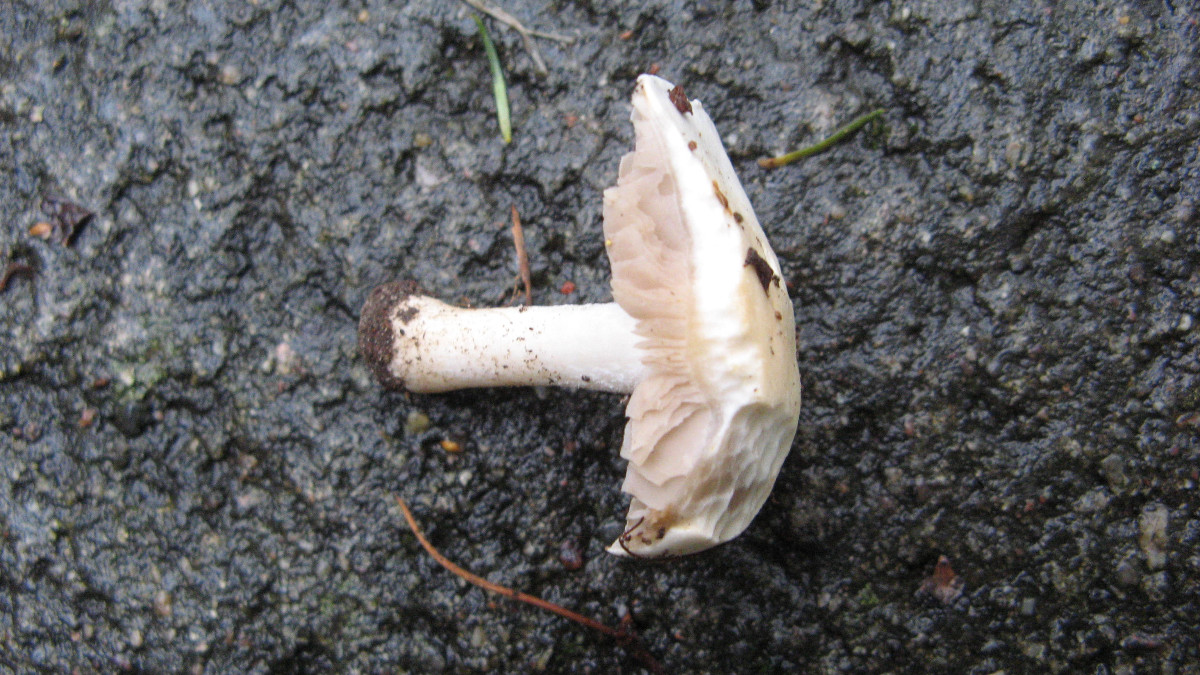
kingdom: Fungi
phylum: Basidiomycota
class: Agaricomycetes
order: Agaricales
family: Hymenogastraceae
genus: Hebeloma
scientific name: Hebeloma
